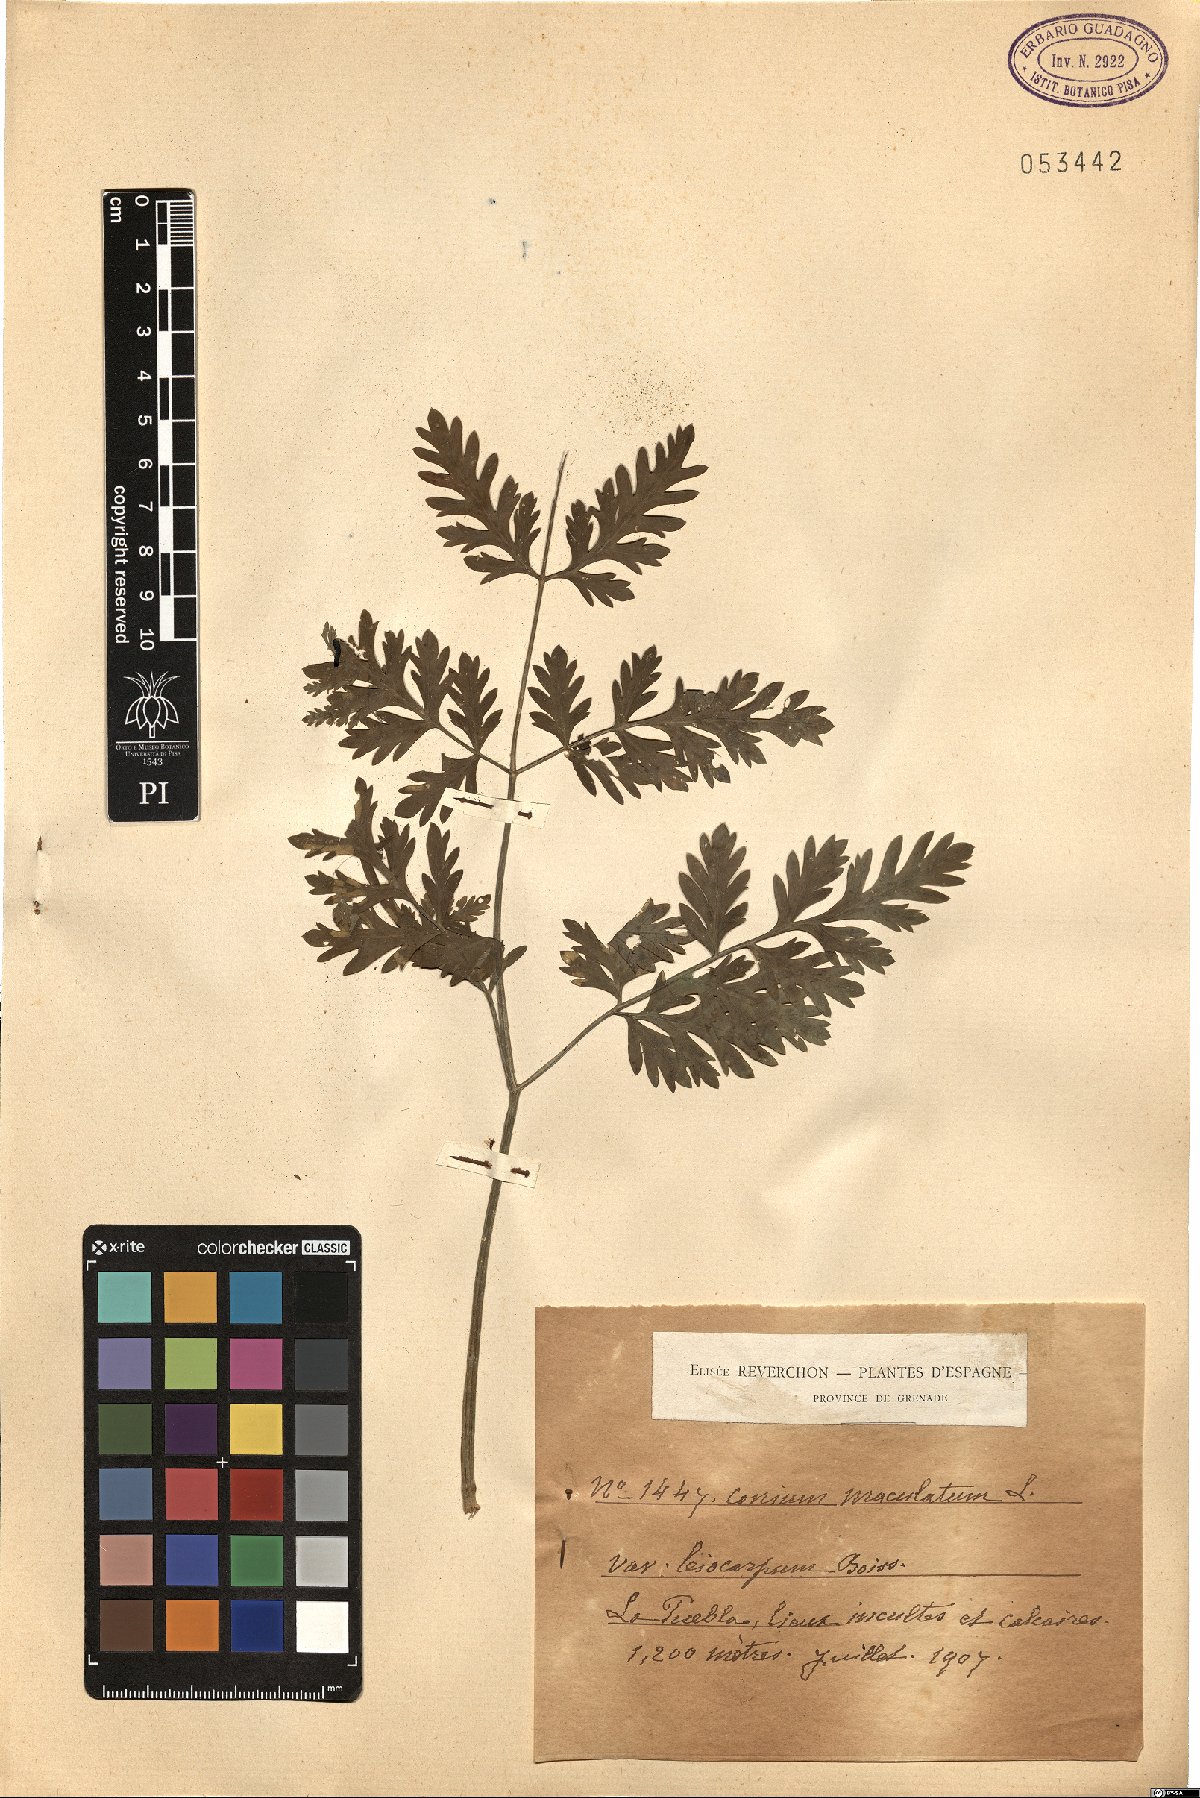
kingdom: Plantae
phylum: Tracheophyta
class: Magnoliopsida
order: Apiales
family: Apiaceae
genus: Conium
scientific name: Conium maculatum
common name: Hemlock
